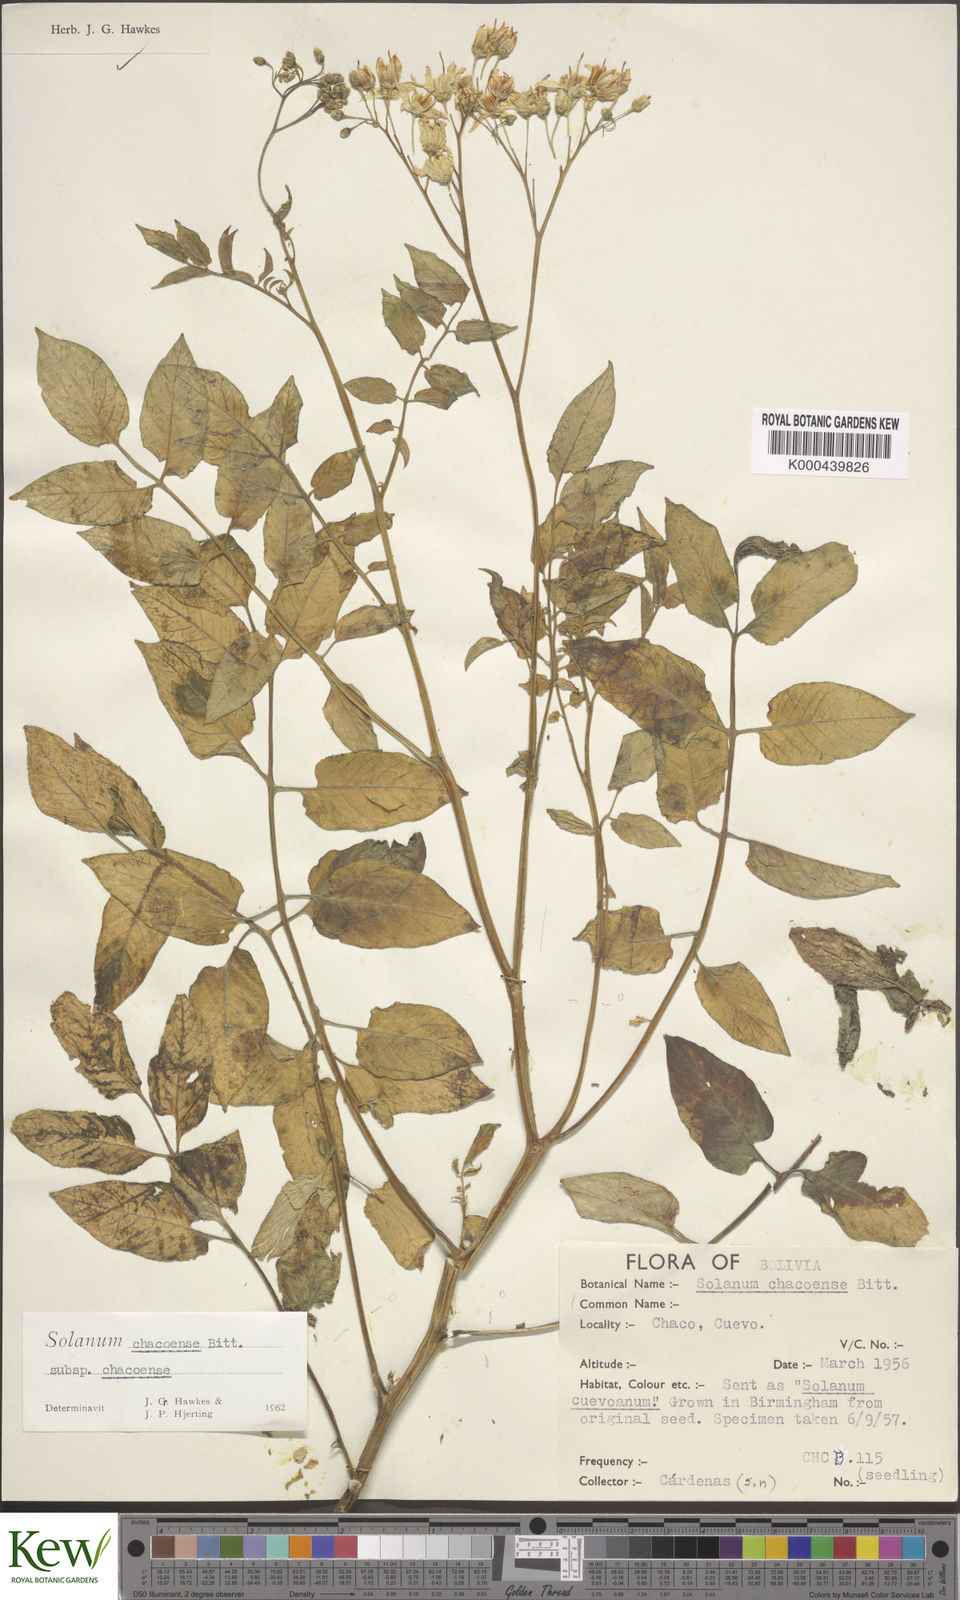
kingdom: Plantae
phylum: Tracheophyta
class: Magnoliopsida
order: Solanales
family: Solanaceae
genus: Solanum
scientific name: Solanum chacoense
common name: Chaco potato
